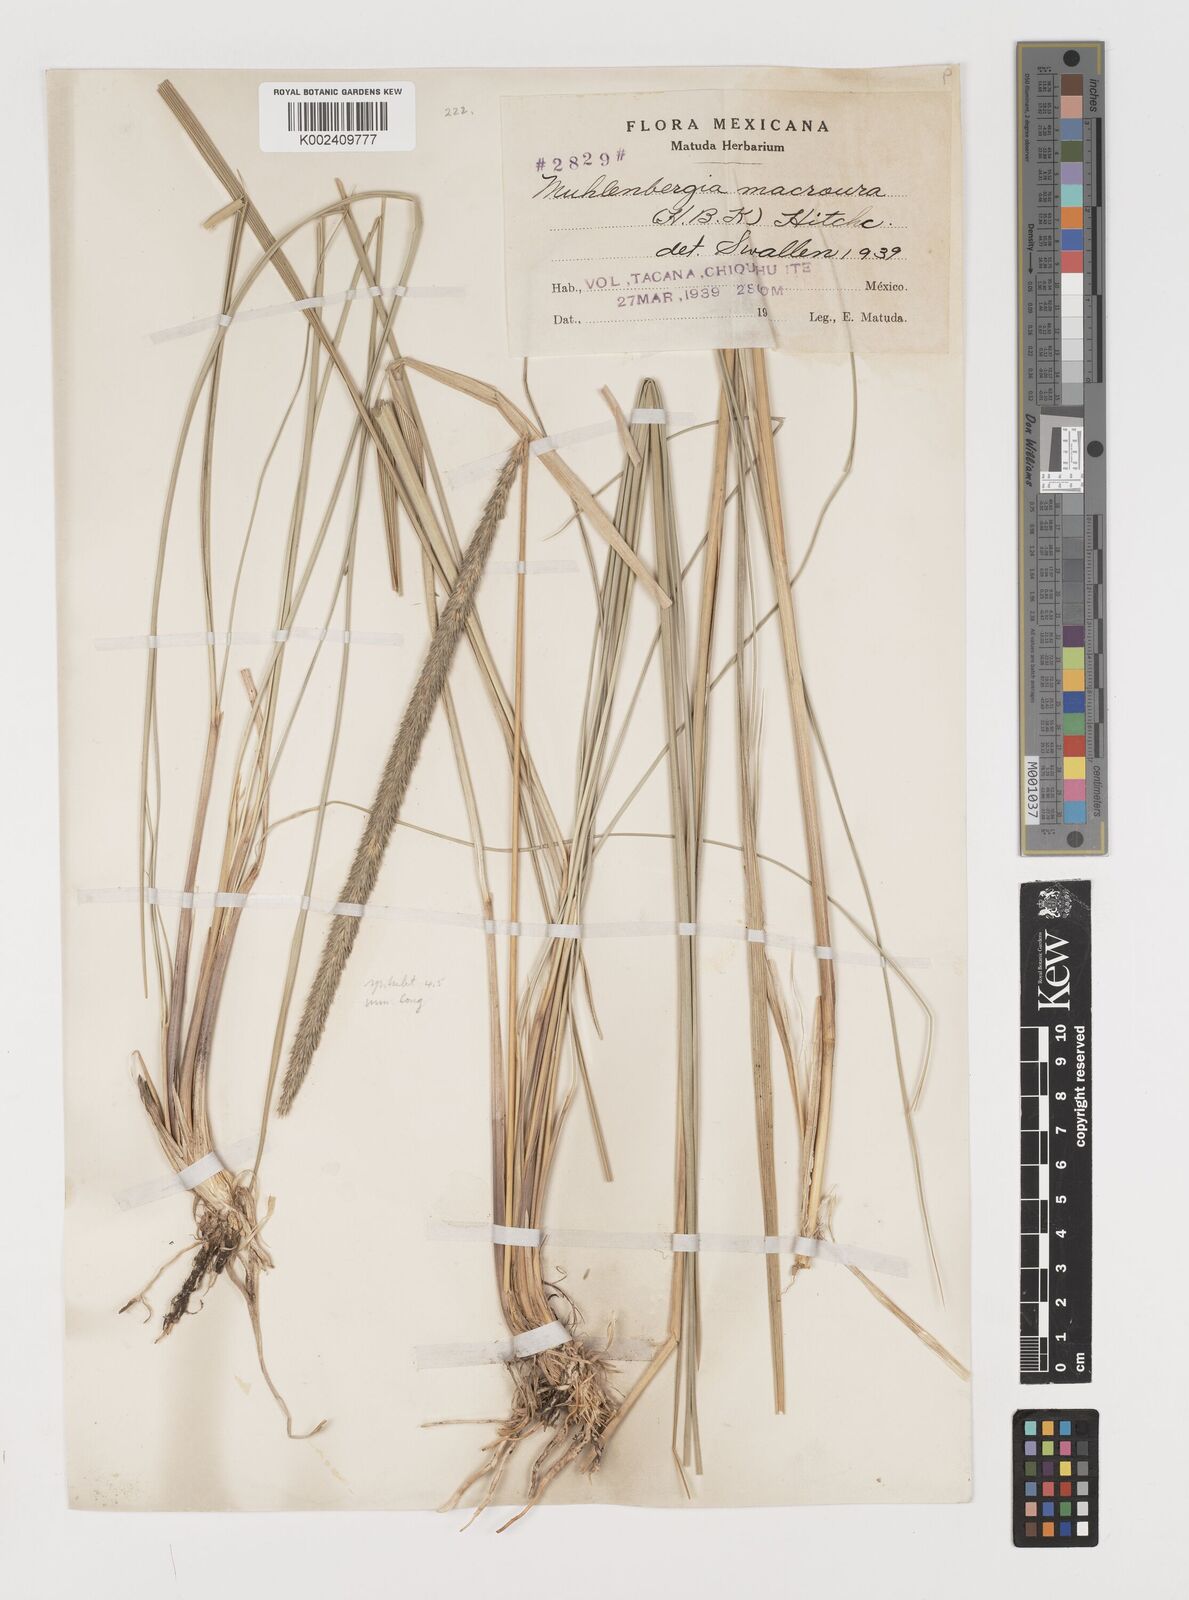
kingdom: Plantae
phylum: Tracheophyta
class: Liliopsida
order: Poales
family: Poaceae
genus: Muhlenbergia
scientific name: Muhlenbergia macroura
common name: Mexican broomroot
